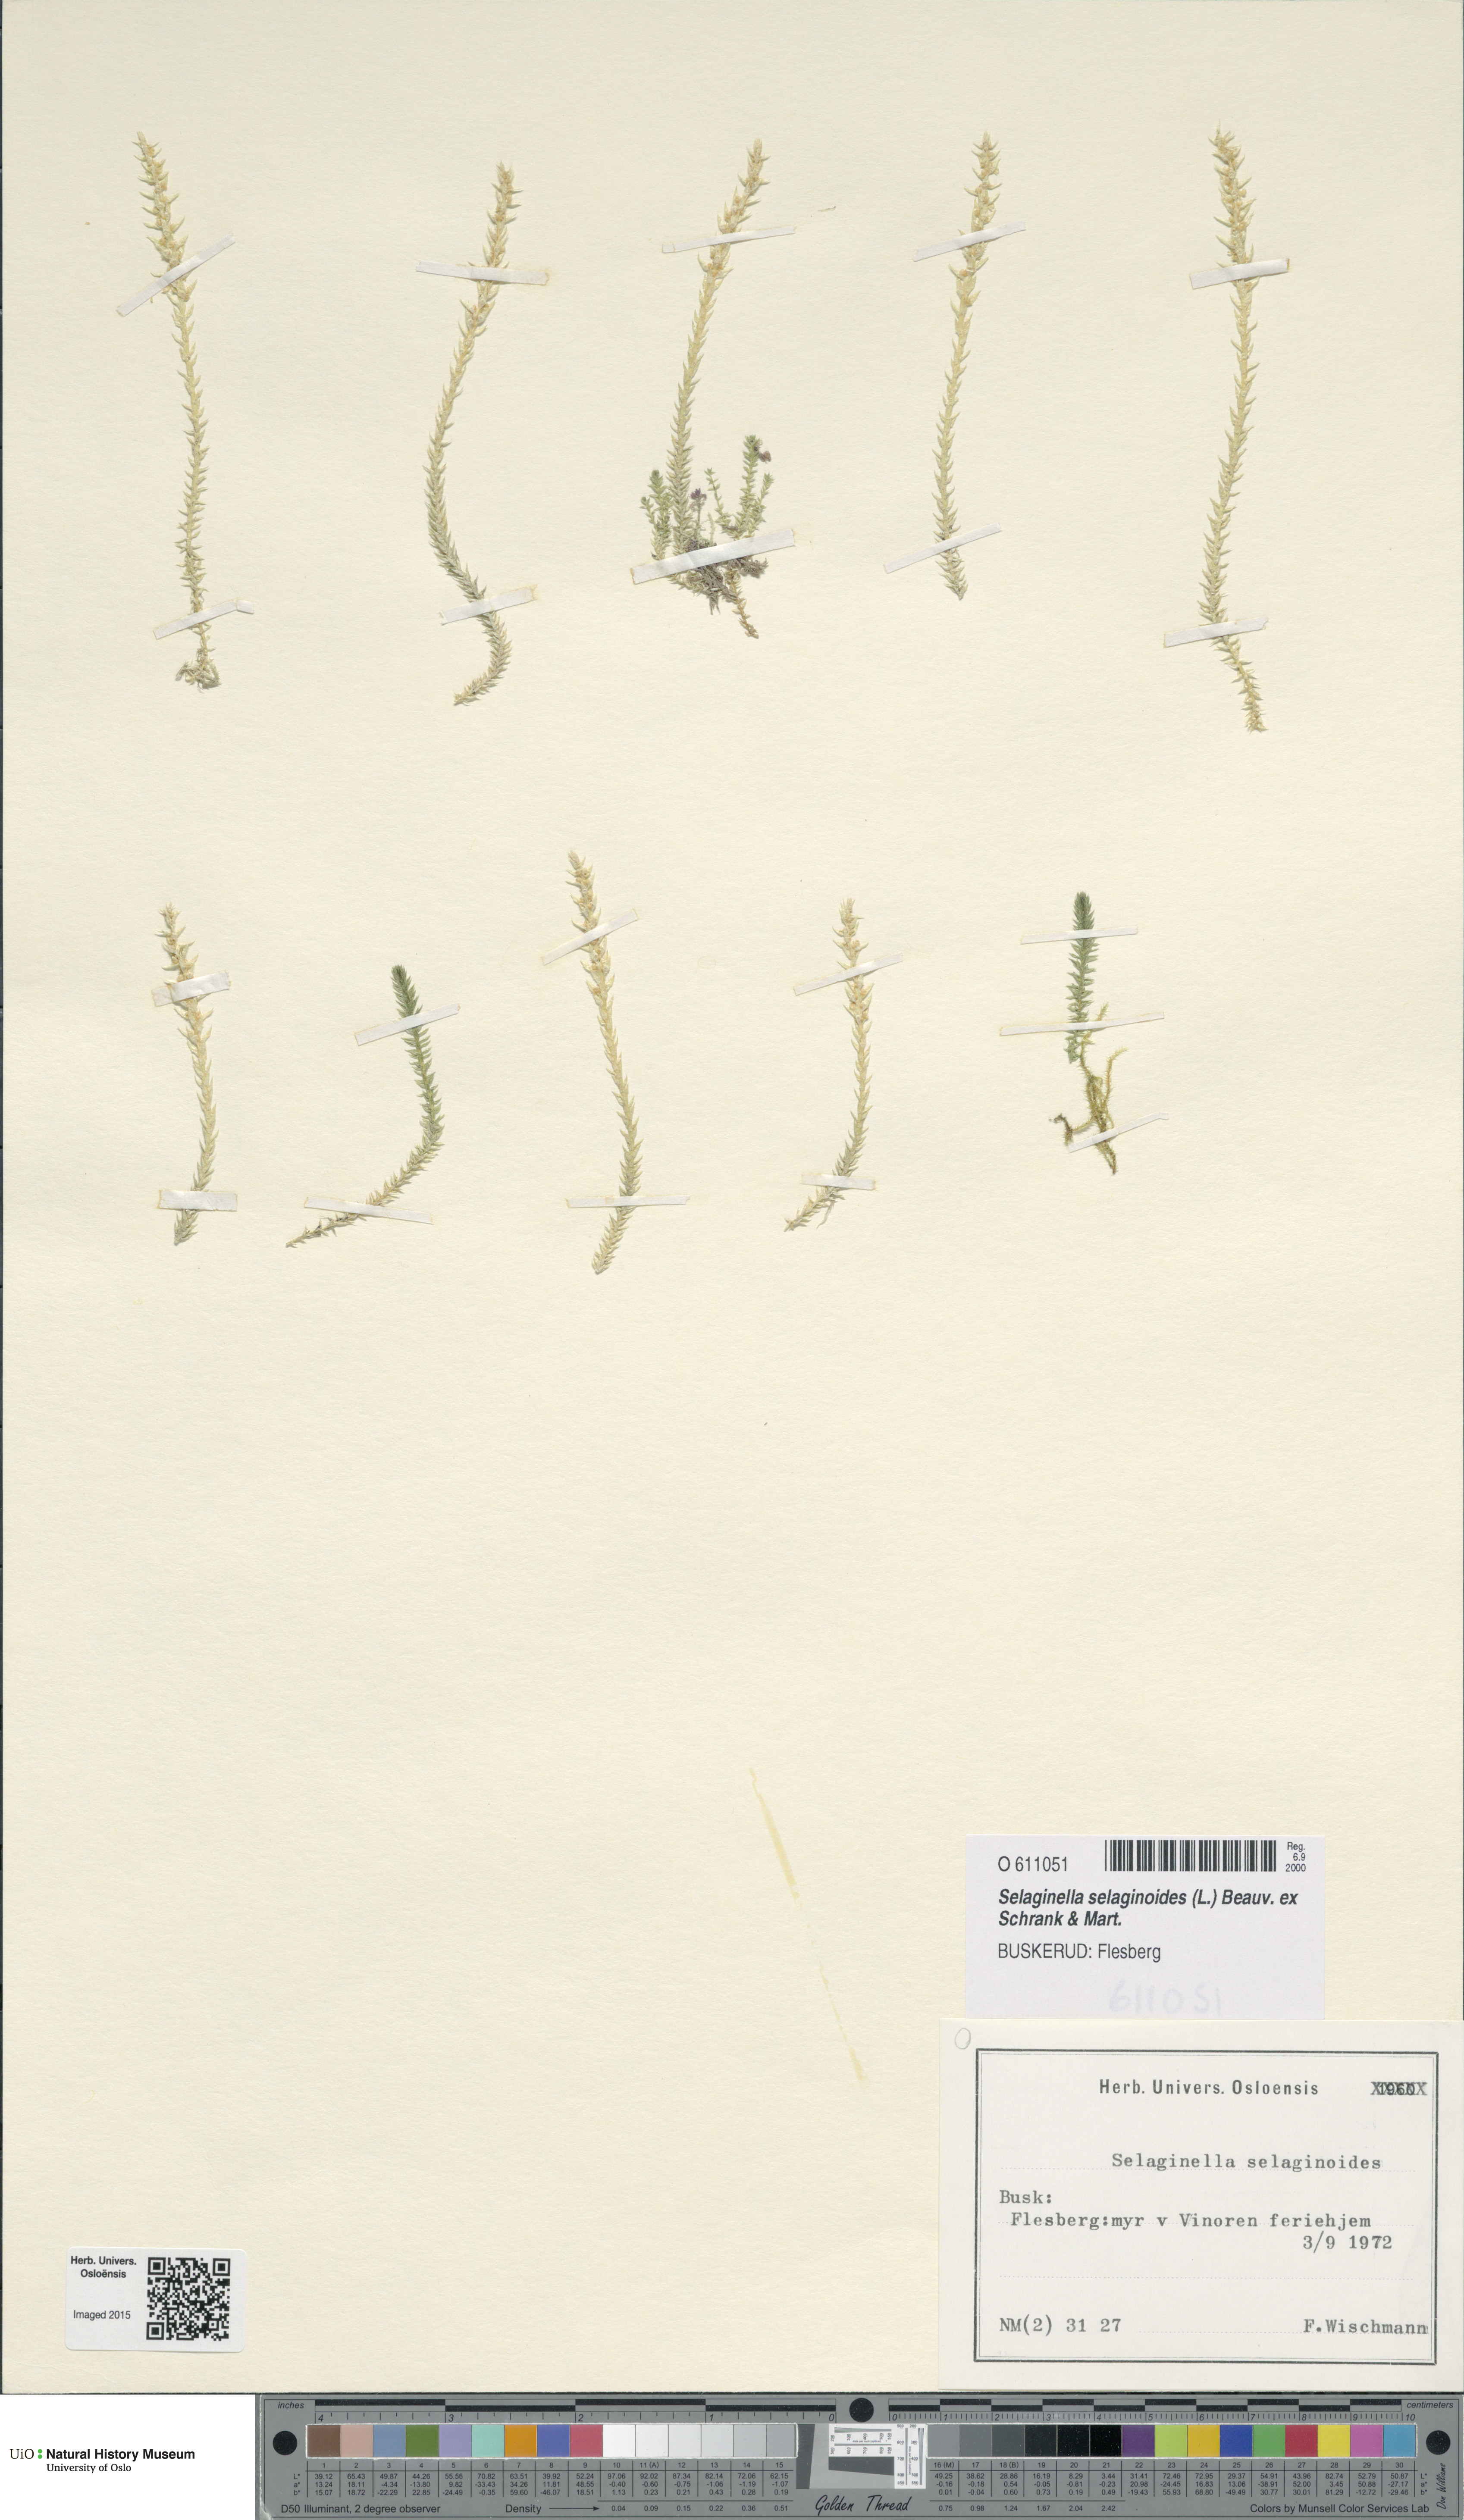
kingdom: Plantae
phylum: Tracheophyta
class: Lycopodiopsida
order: Selaginellales
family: Selaginellaceae
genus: Selaginella
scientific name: Selaginella selaginoides
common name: Prickly mountain-moss
